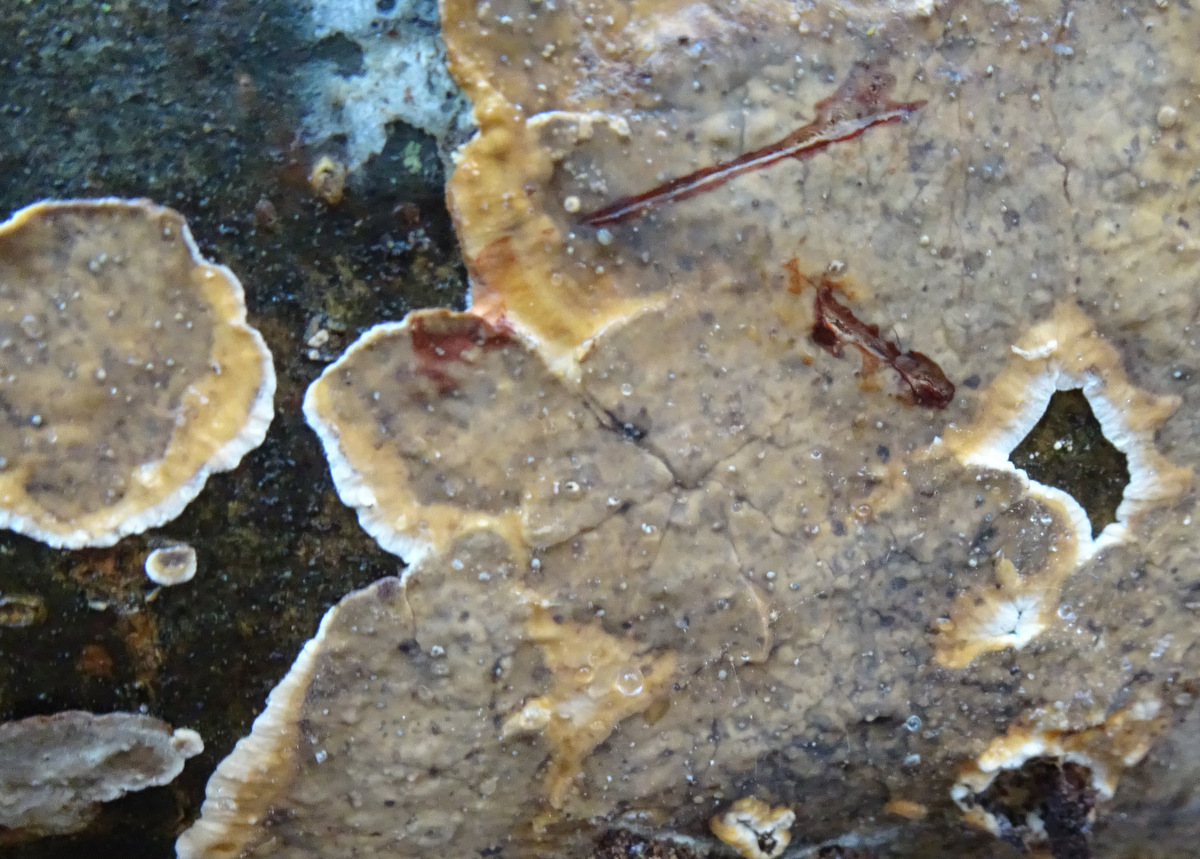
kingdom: Fungi
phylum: Basidiomycota
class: Agaricomycetes
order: Russulales
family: Stereaceae
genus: Stereum
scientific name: Stereum rugosum
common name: rynket lædersvamp
